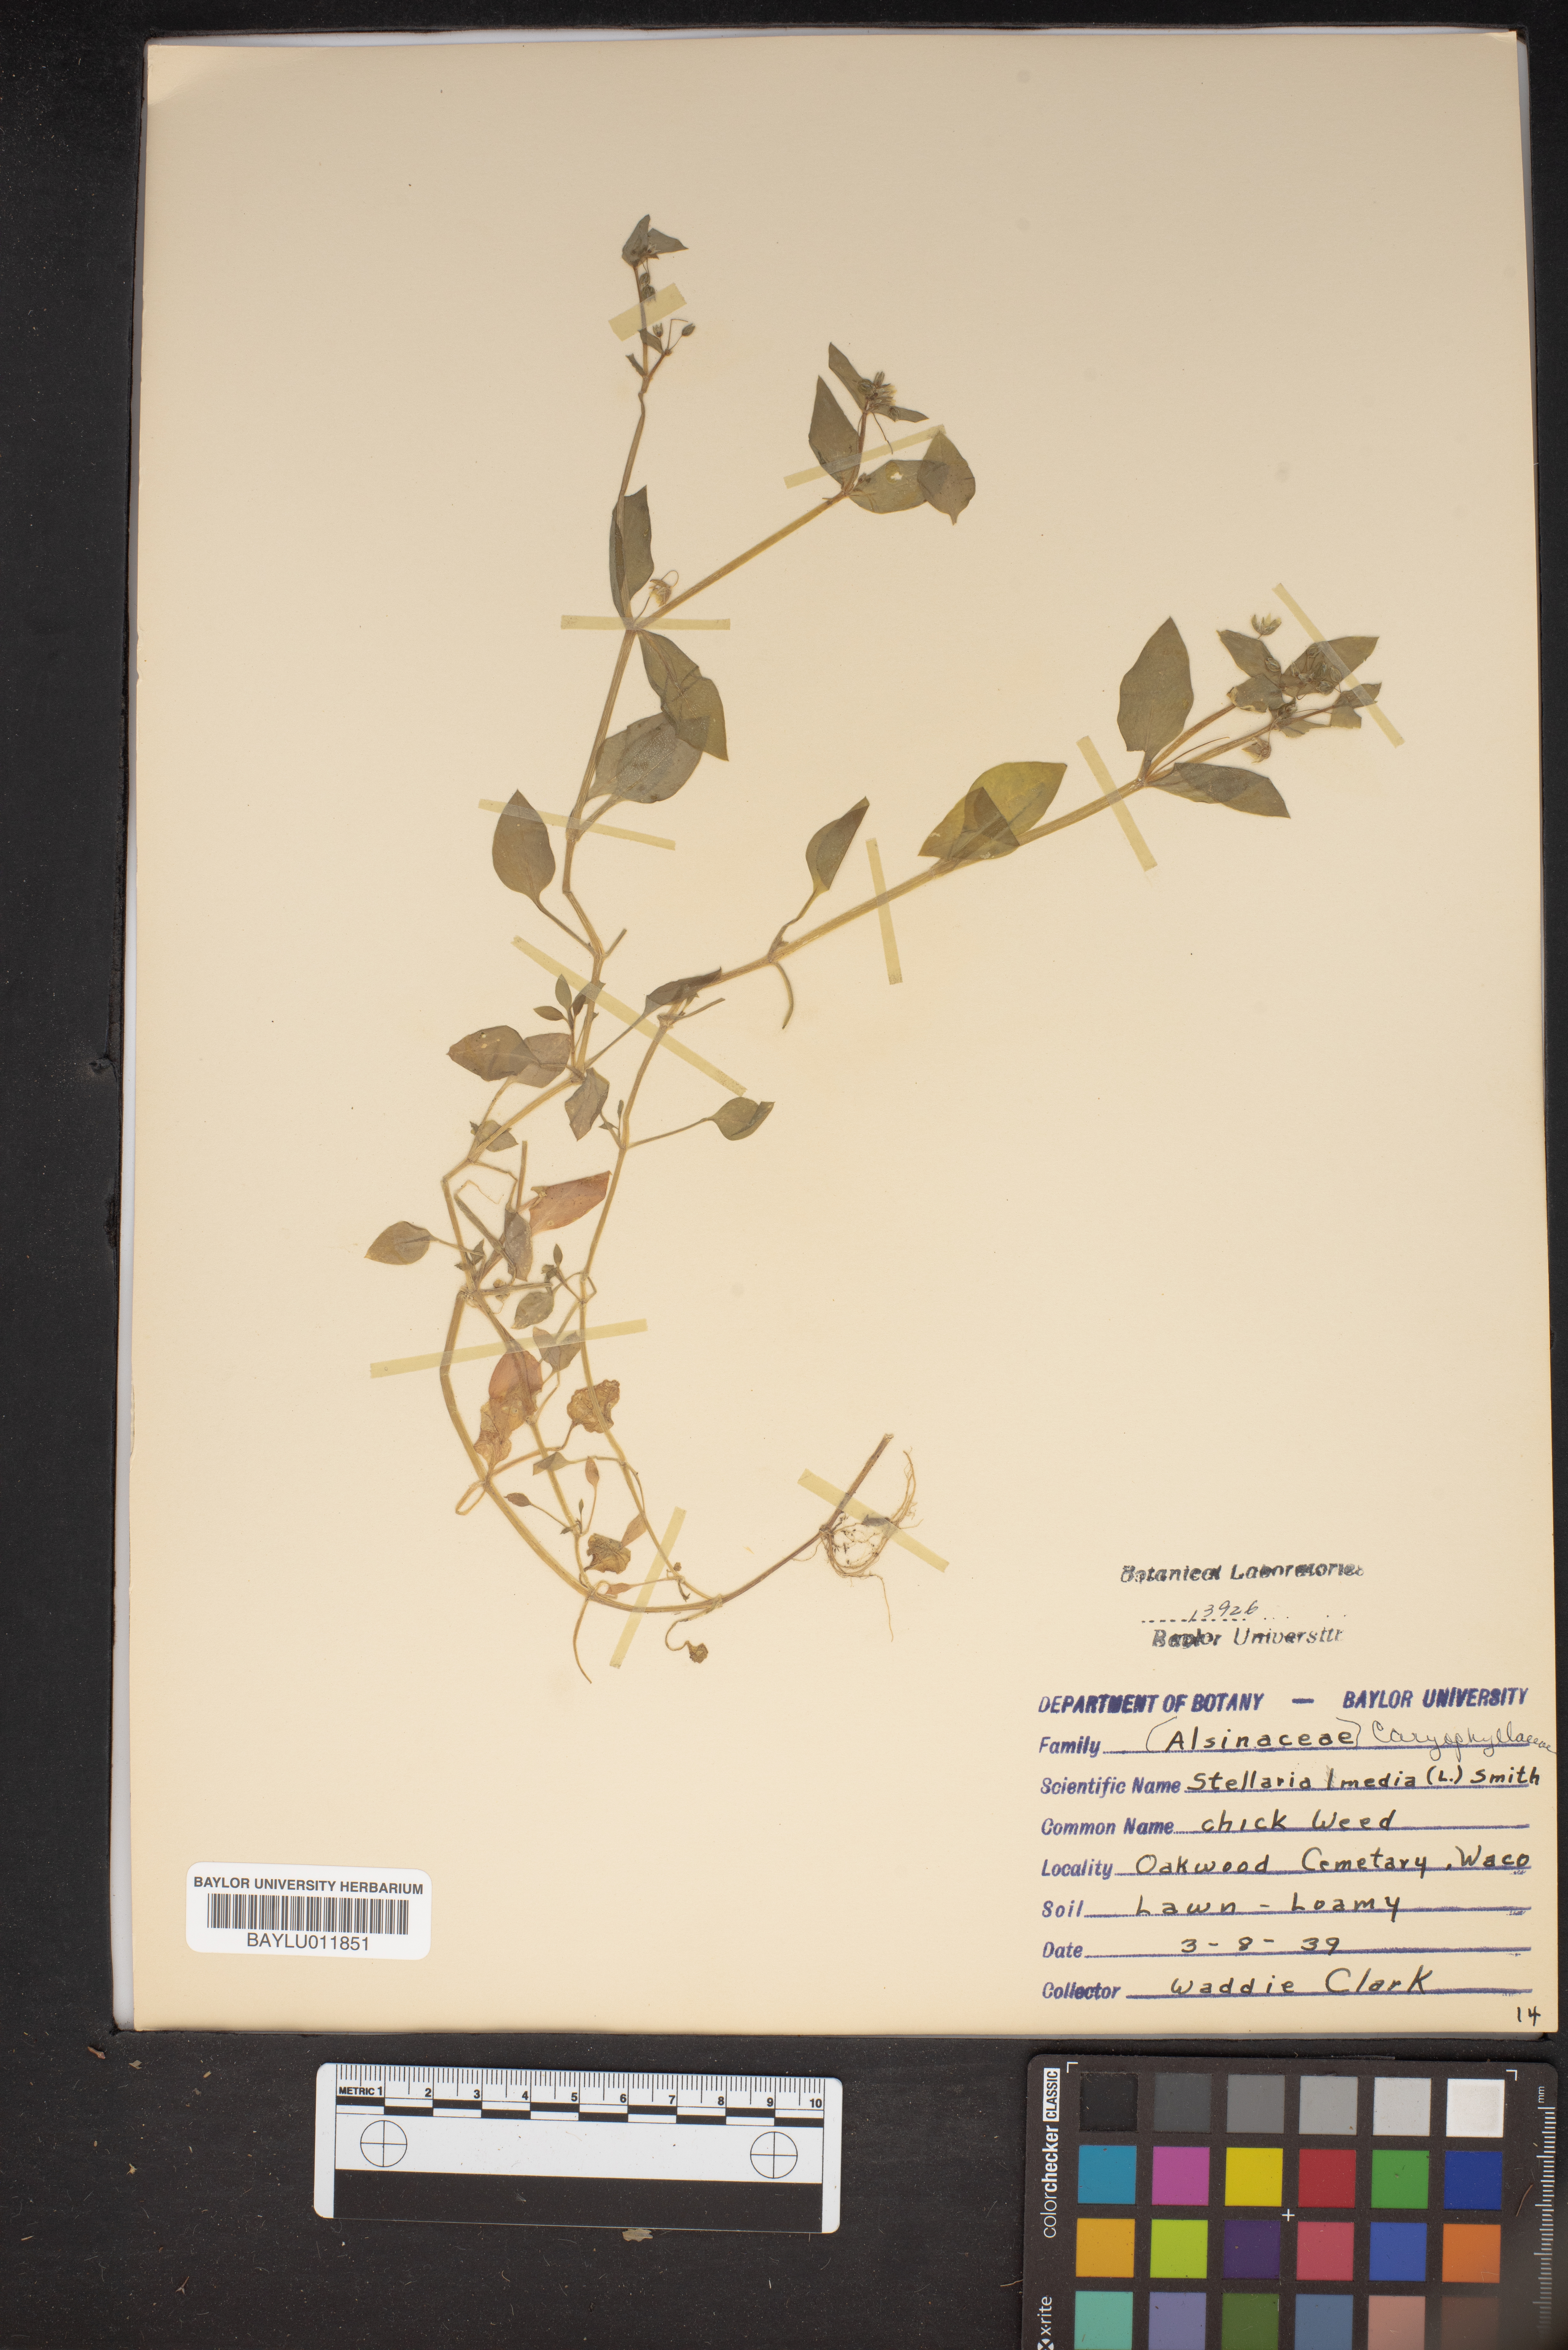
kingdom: Plantae
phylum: Tracheophyta
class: Magnoliopsida
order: Caryophyllales
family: Caryophyllaceae
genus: Stellaria
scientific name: Stellaria media
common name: Common chickweed
